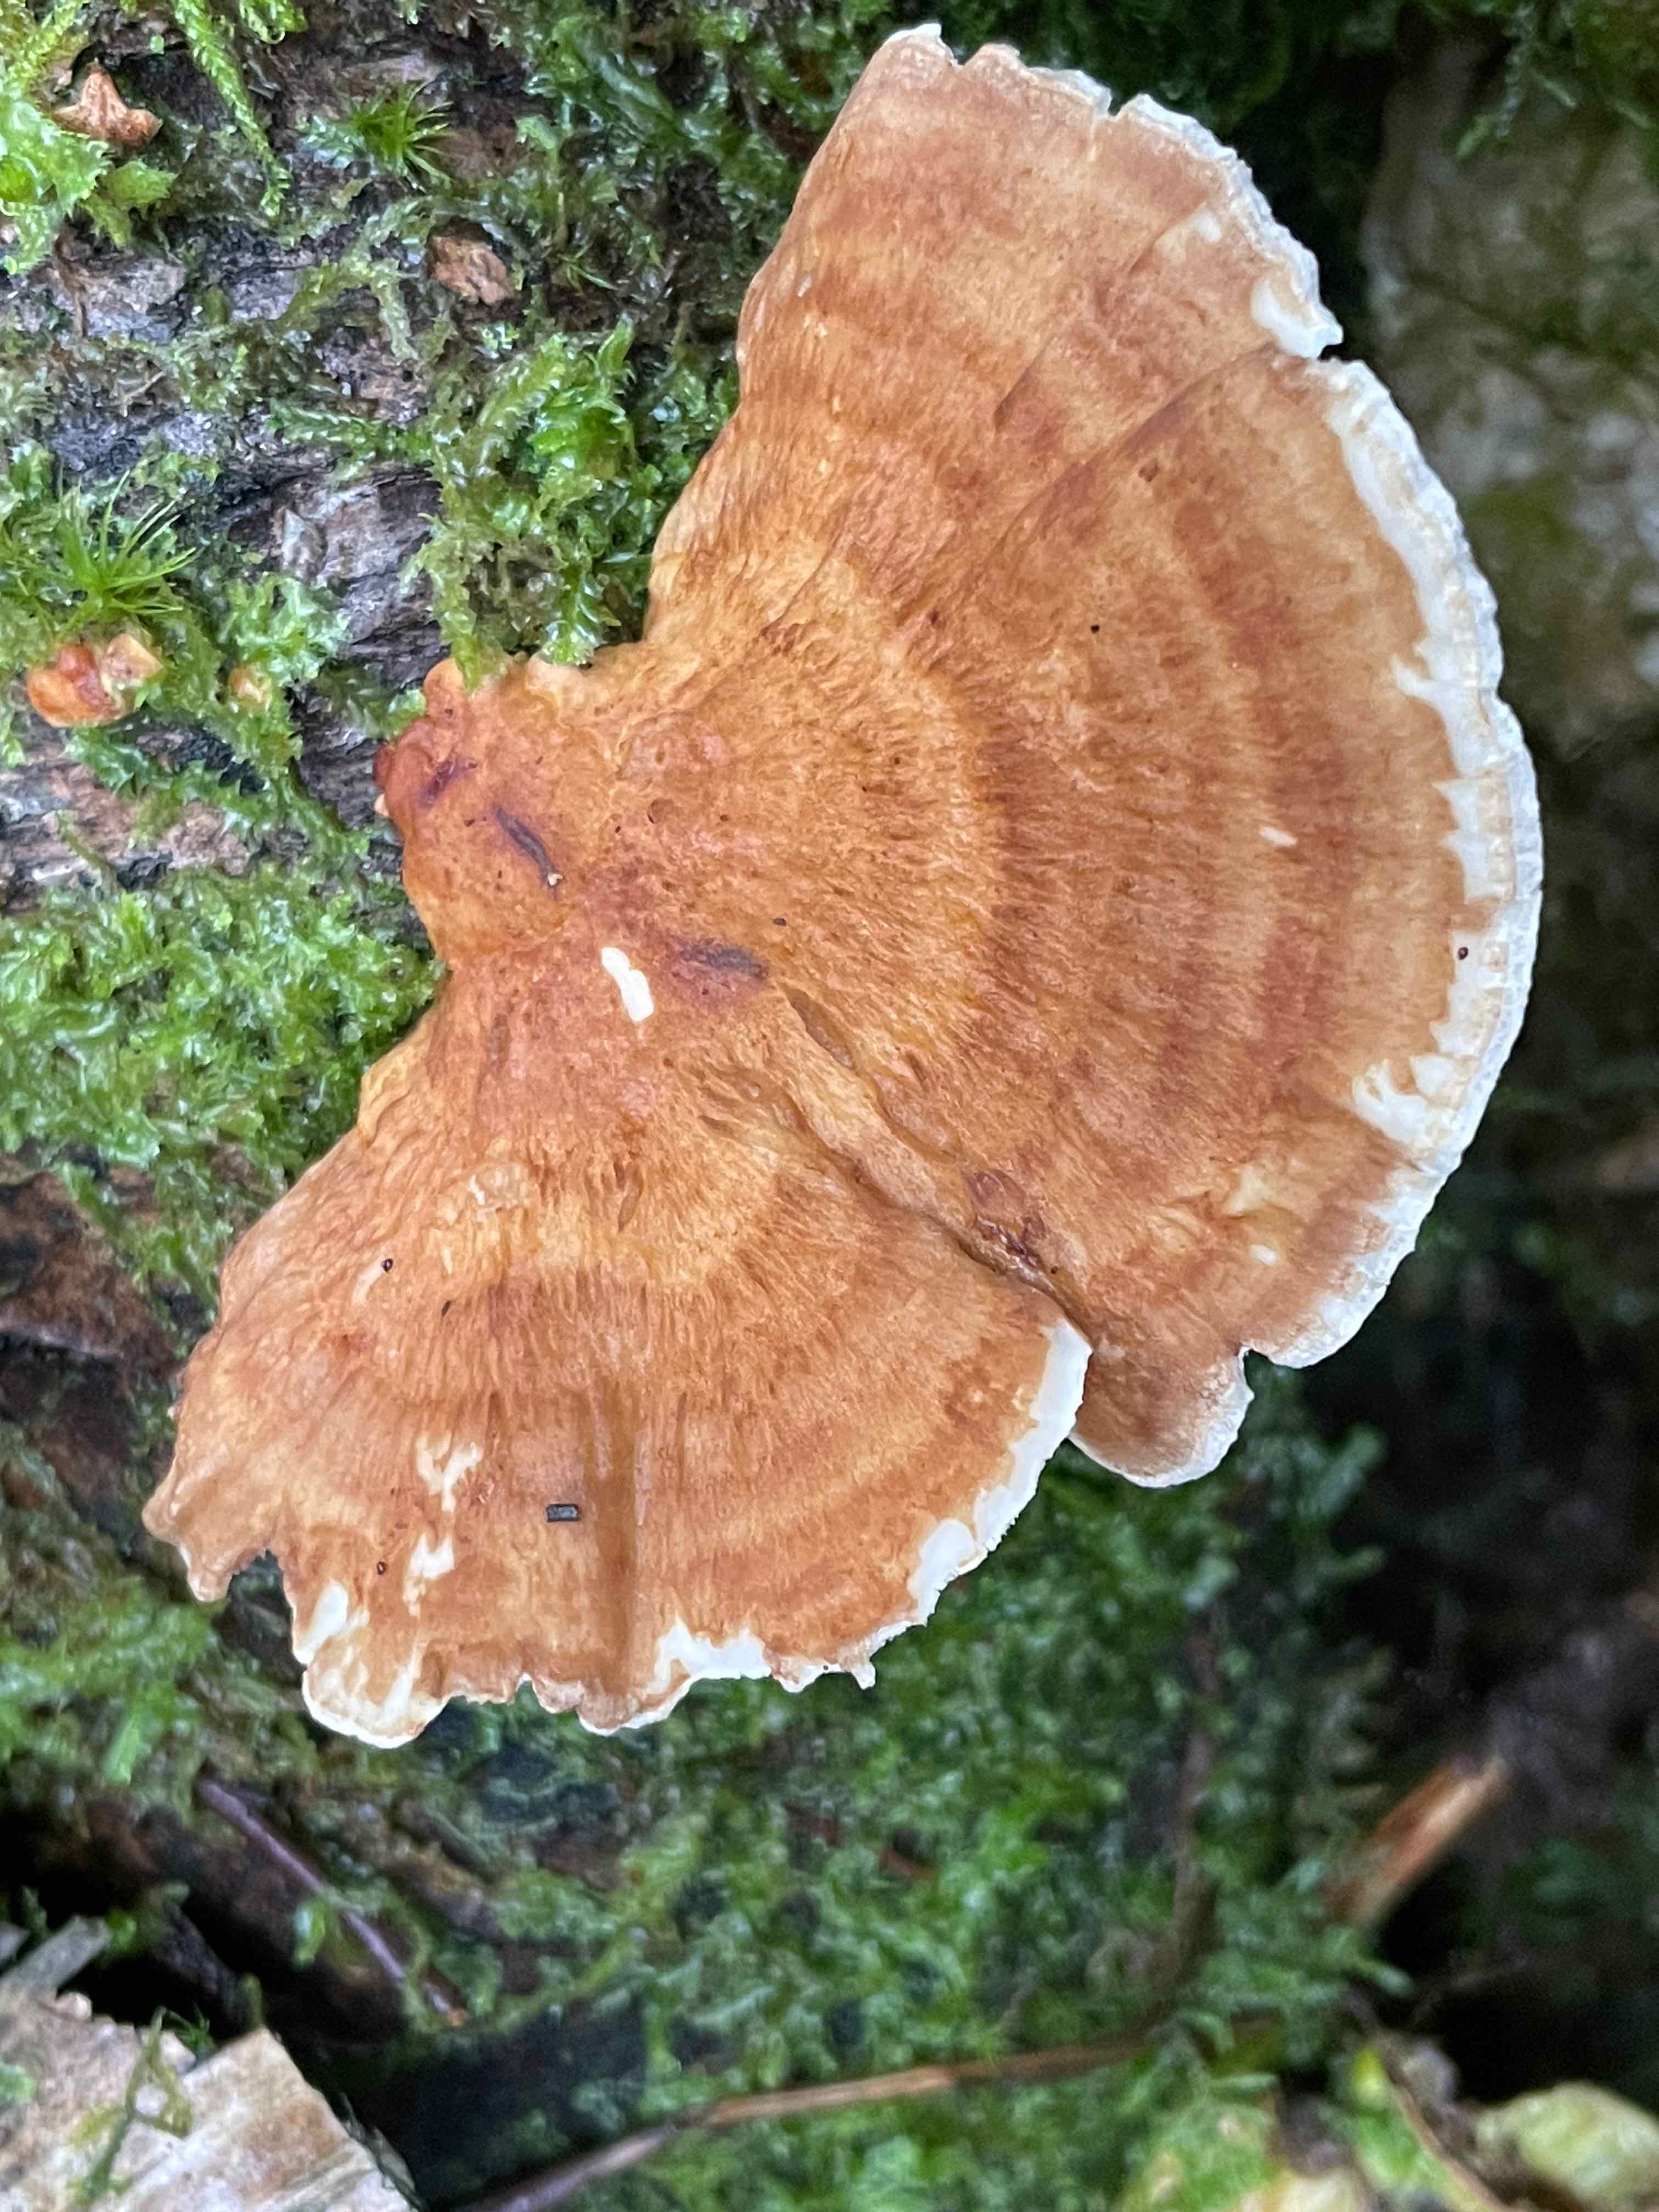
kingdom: Fungi
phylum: Basidiomycota
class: Agaricomycetes
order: Polyporales
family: Polyporaceae
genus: Trametes
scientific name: Trametes ochracea
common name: bæltet læderporesvamp
